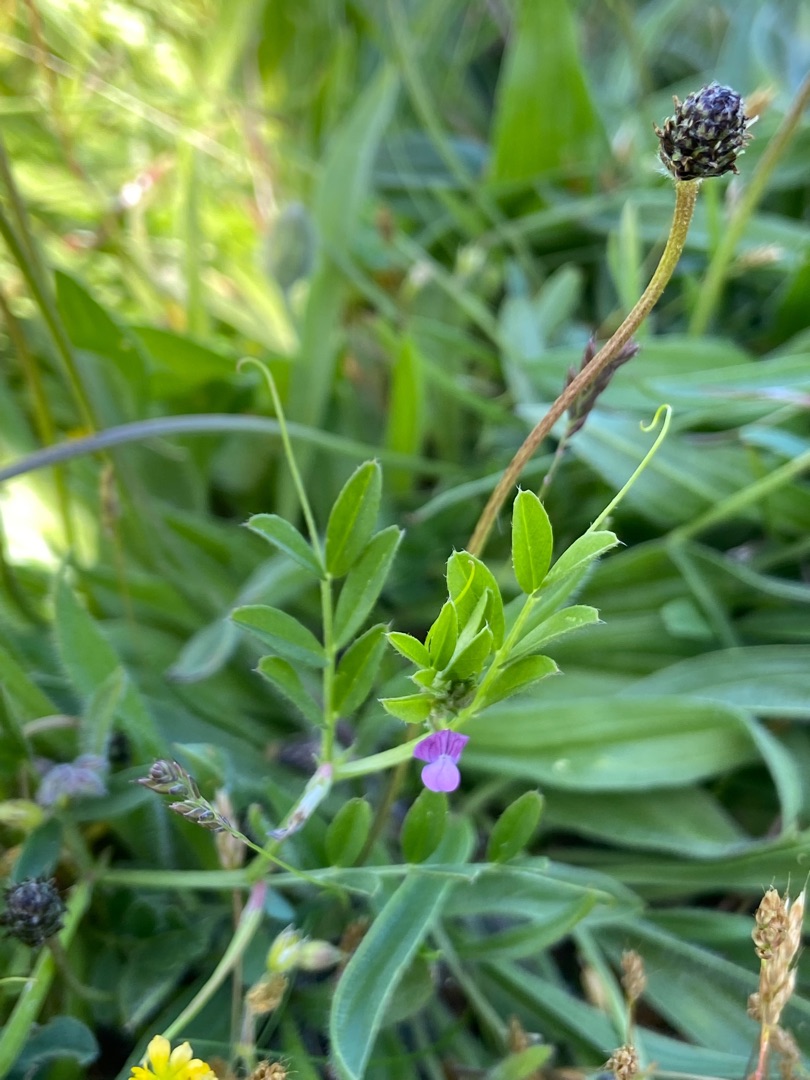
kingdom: Plantae
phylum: Tracheophyta
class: Magnoliopsida
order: Fabales
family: Fabaceae
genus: Vicia
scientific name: Vicia lathyroides
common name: Vår-vikke
